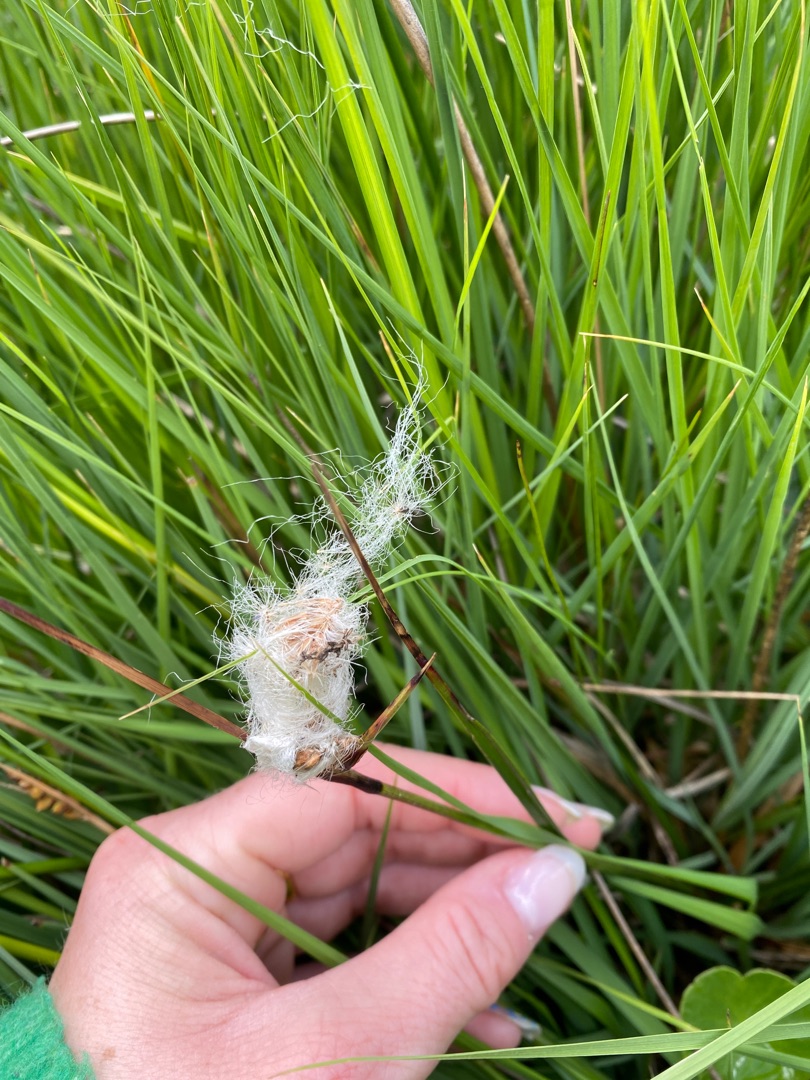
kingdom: Plantae
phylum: Tracheophyta
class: Liliopsida
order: Poales
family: Cyperaceae
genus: Eriophorum
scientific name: Eriophorum angustifolium
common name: Smalbladet kæruld
